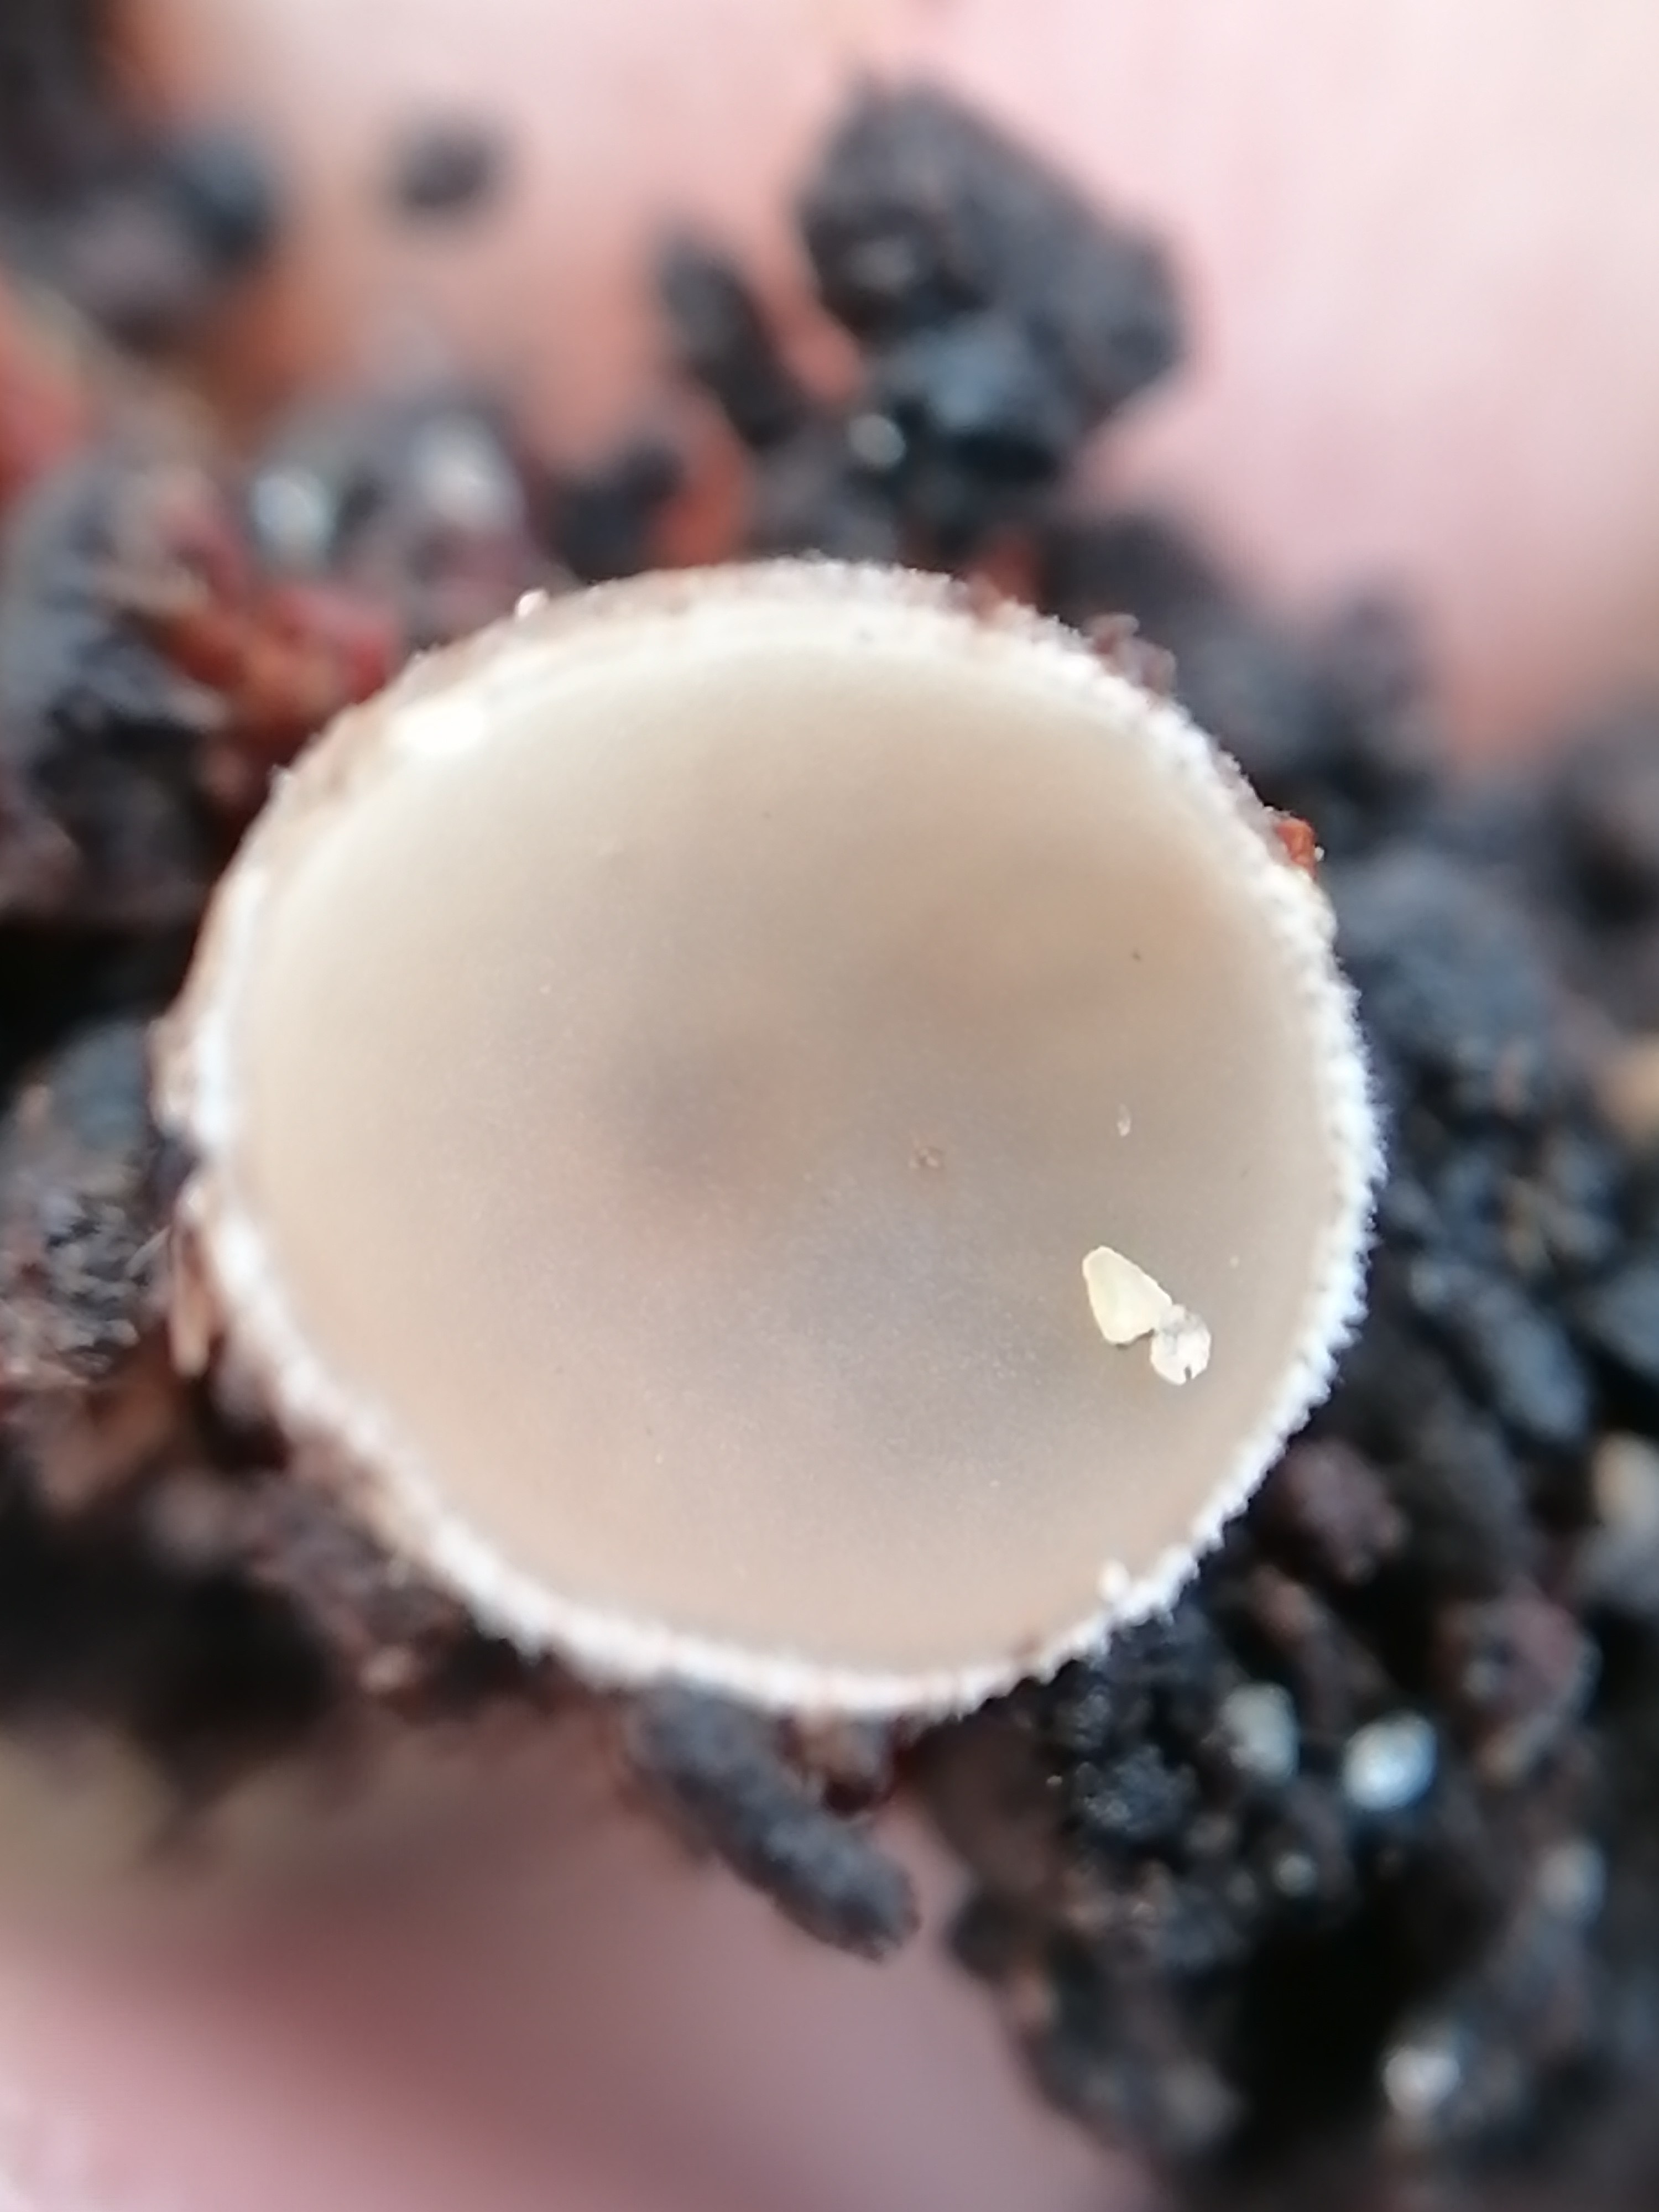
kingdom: Fungi
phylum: Ascomycota
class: Leotiomycetes
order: Helotiales
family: Sclerotiniaceae
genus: Ciboria
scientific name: Ciboria
